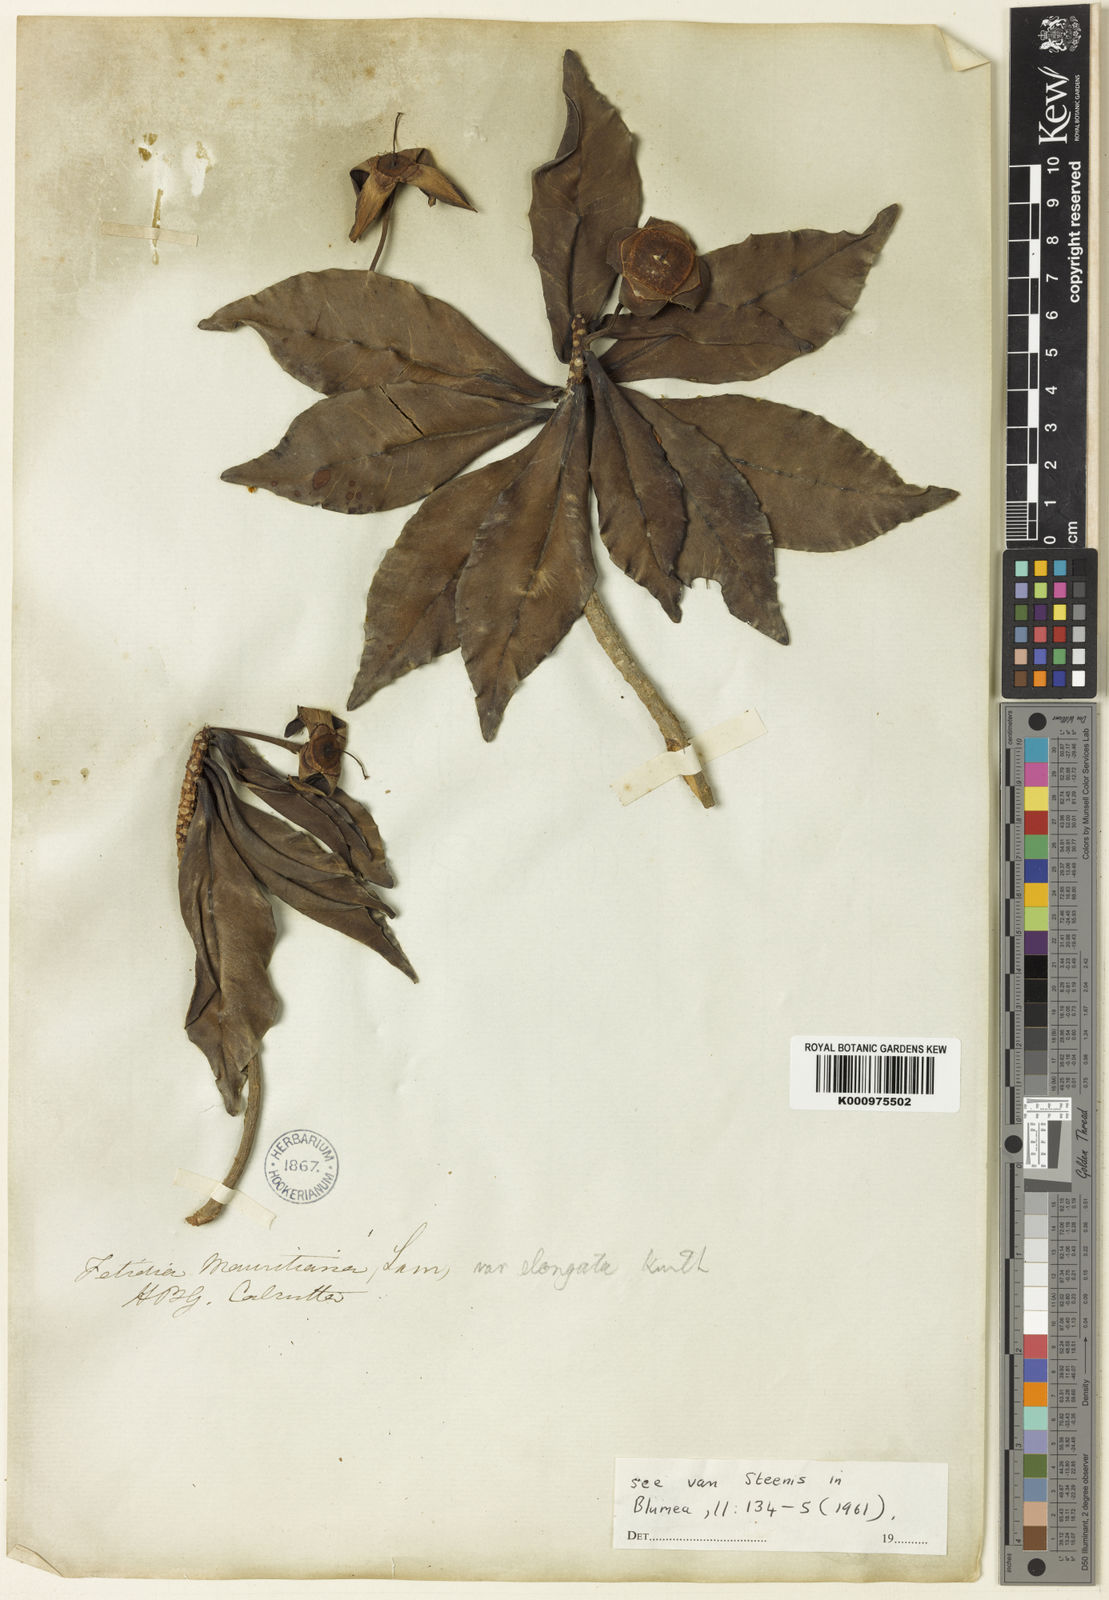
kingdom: Plantae
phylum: Tracheophyta
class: Magnoliopsida
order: Ericales
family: Lecythidaceae
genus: Foetidia
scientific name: Foetidia mauritiana
